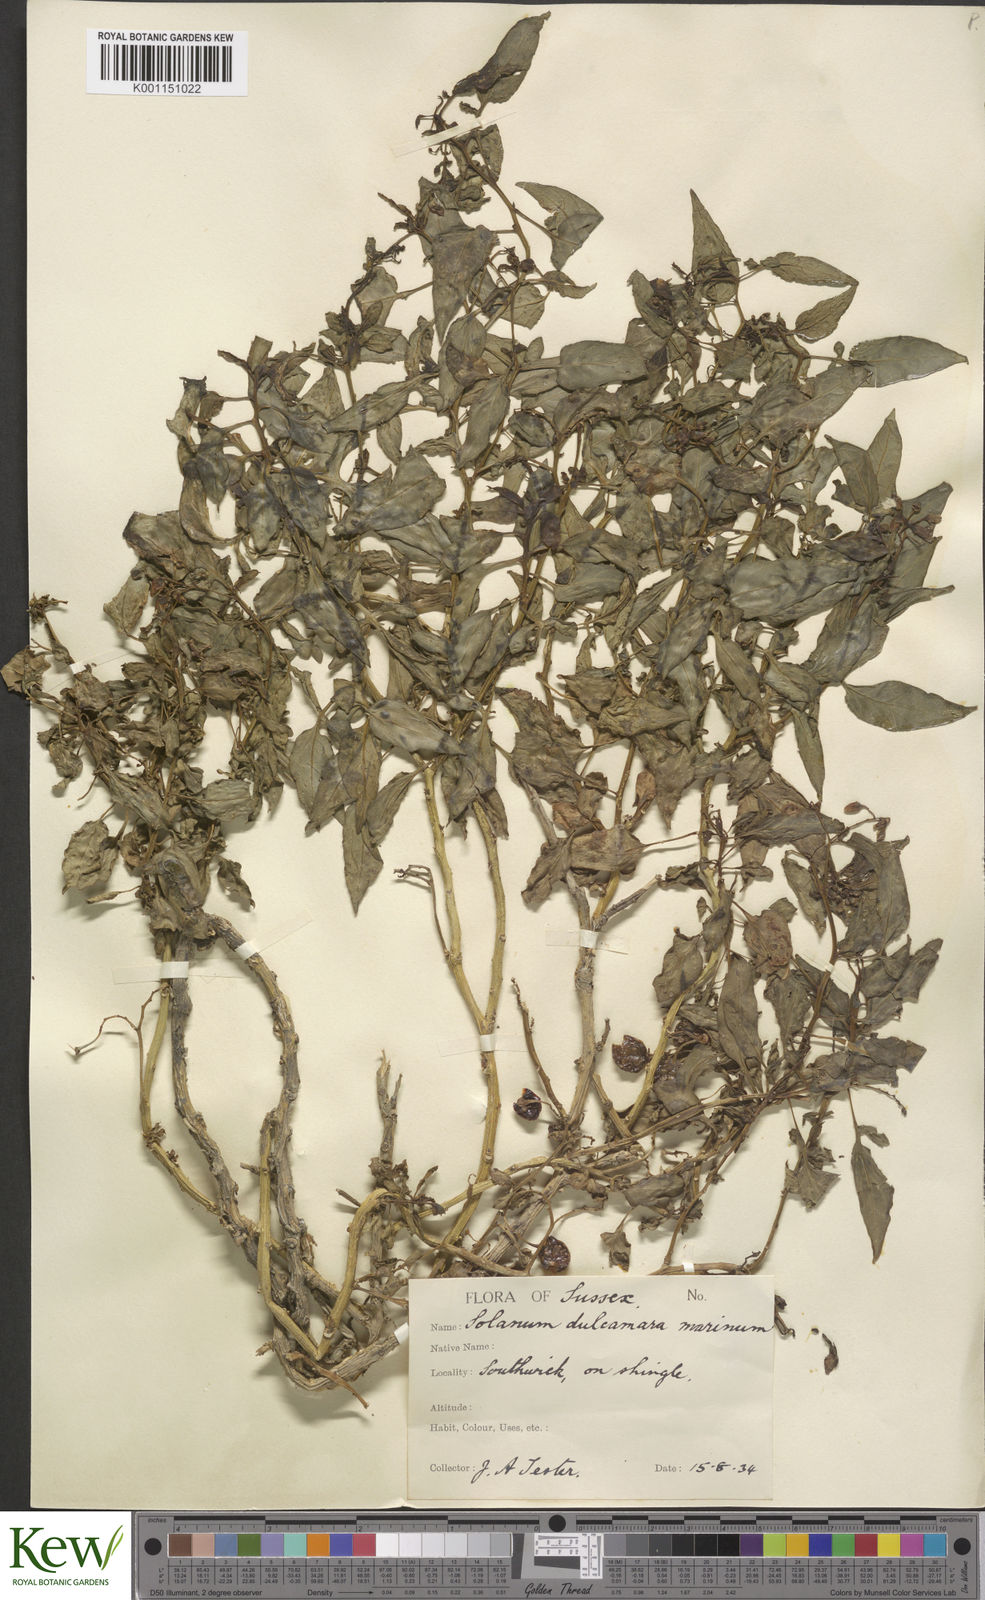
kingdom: Plantae
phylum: Tracheophyta
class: Magnoliopsida
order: Solanales
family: Solanaceae
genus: Solanum
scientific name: Solanum dulcamara
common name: Climbing nightshade
